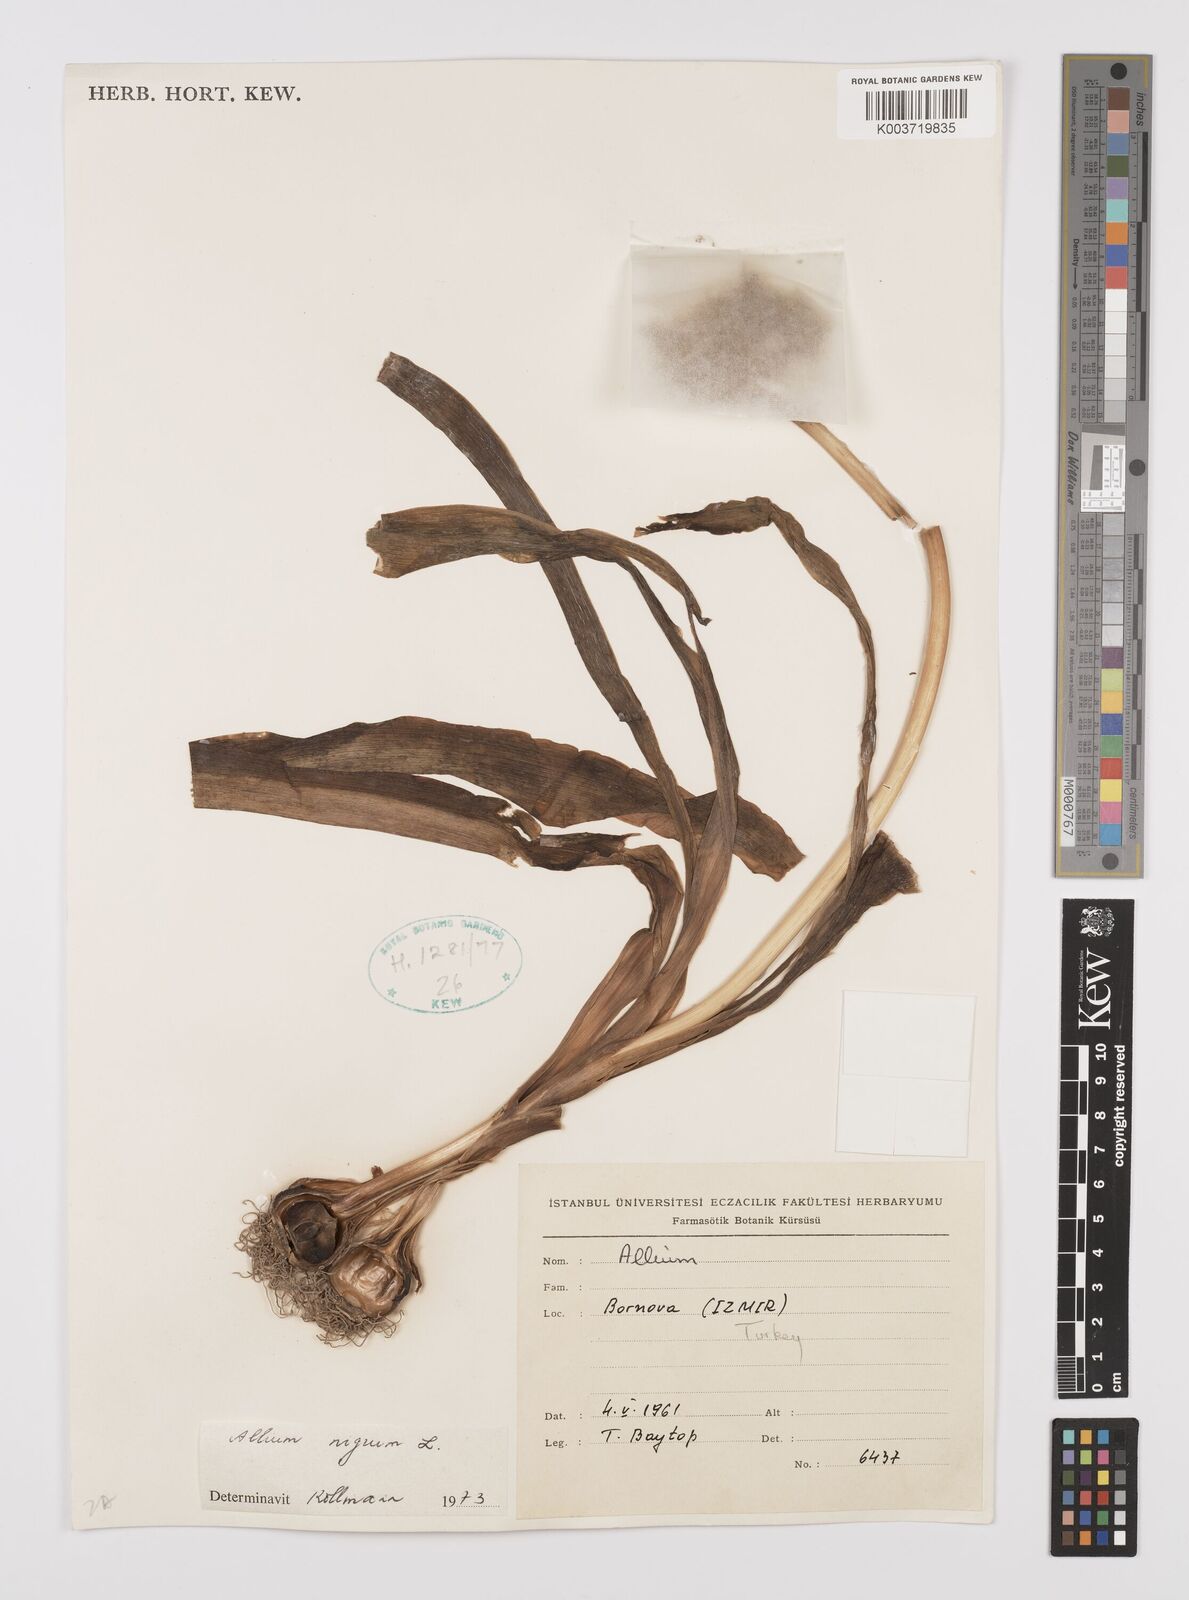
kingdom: Plantae
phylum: Tracheophyta
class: Liliopsida
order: Asparagales
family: Amaryllidaceae
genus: Allium
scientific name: Allium nigrum
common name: Black garlic
